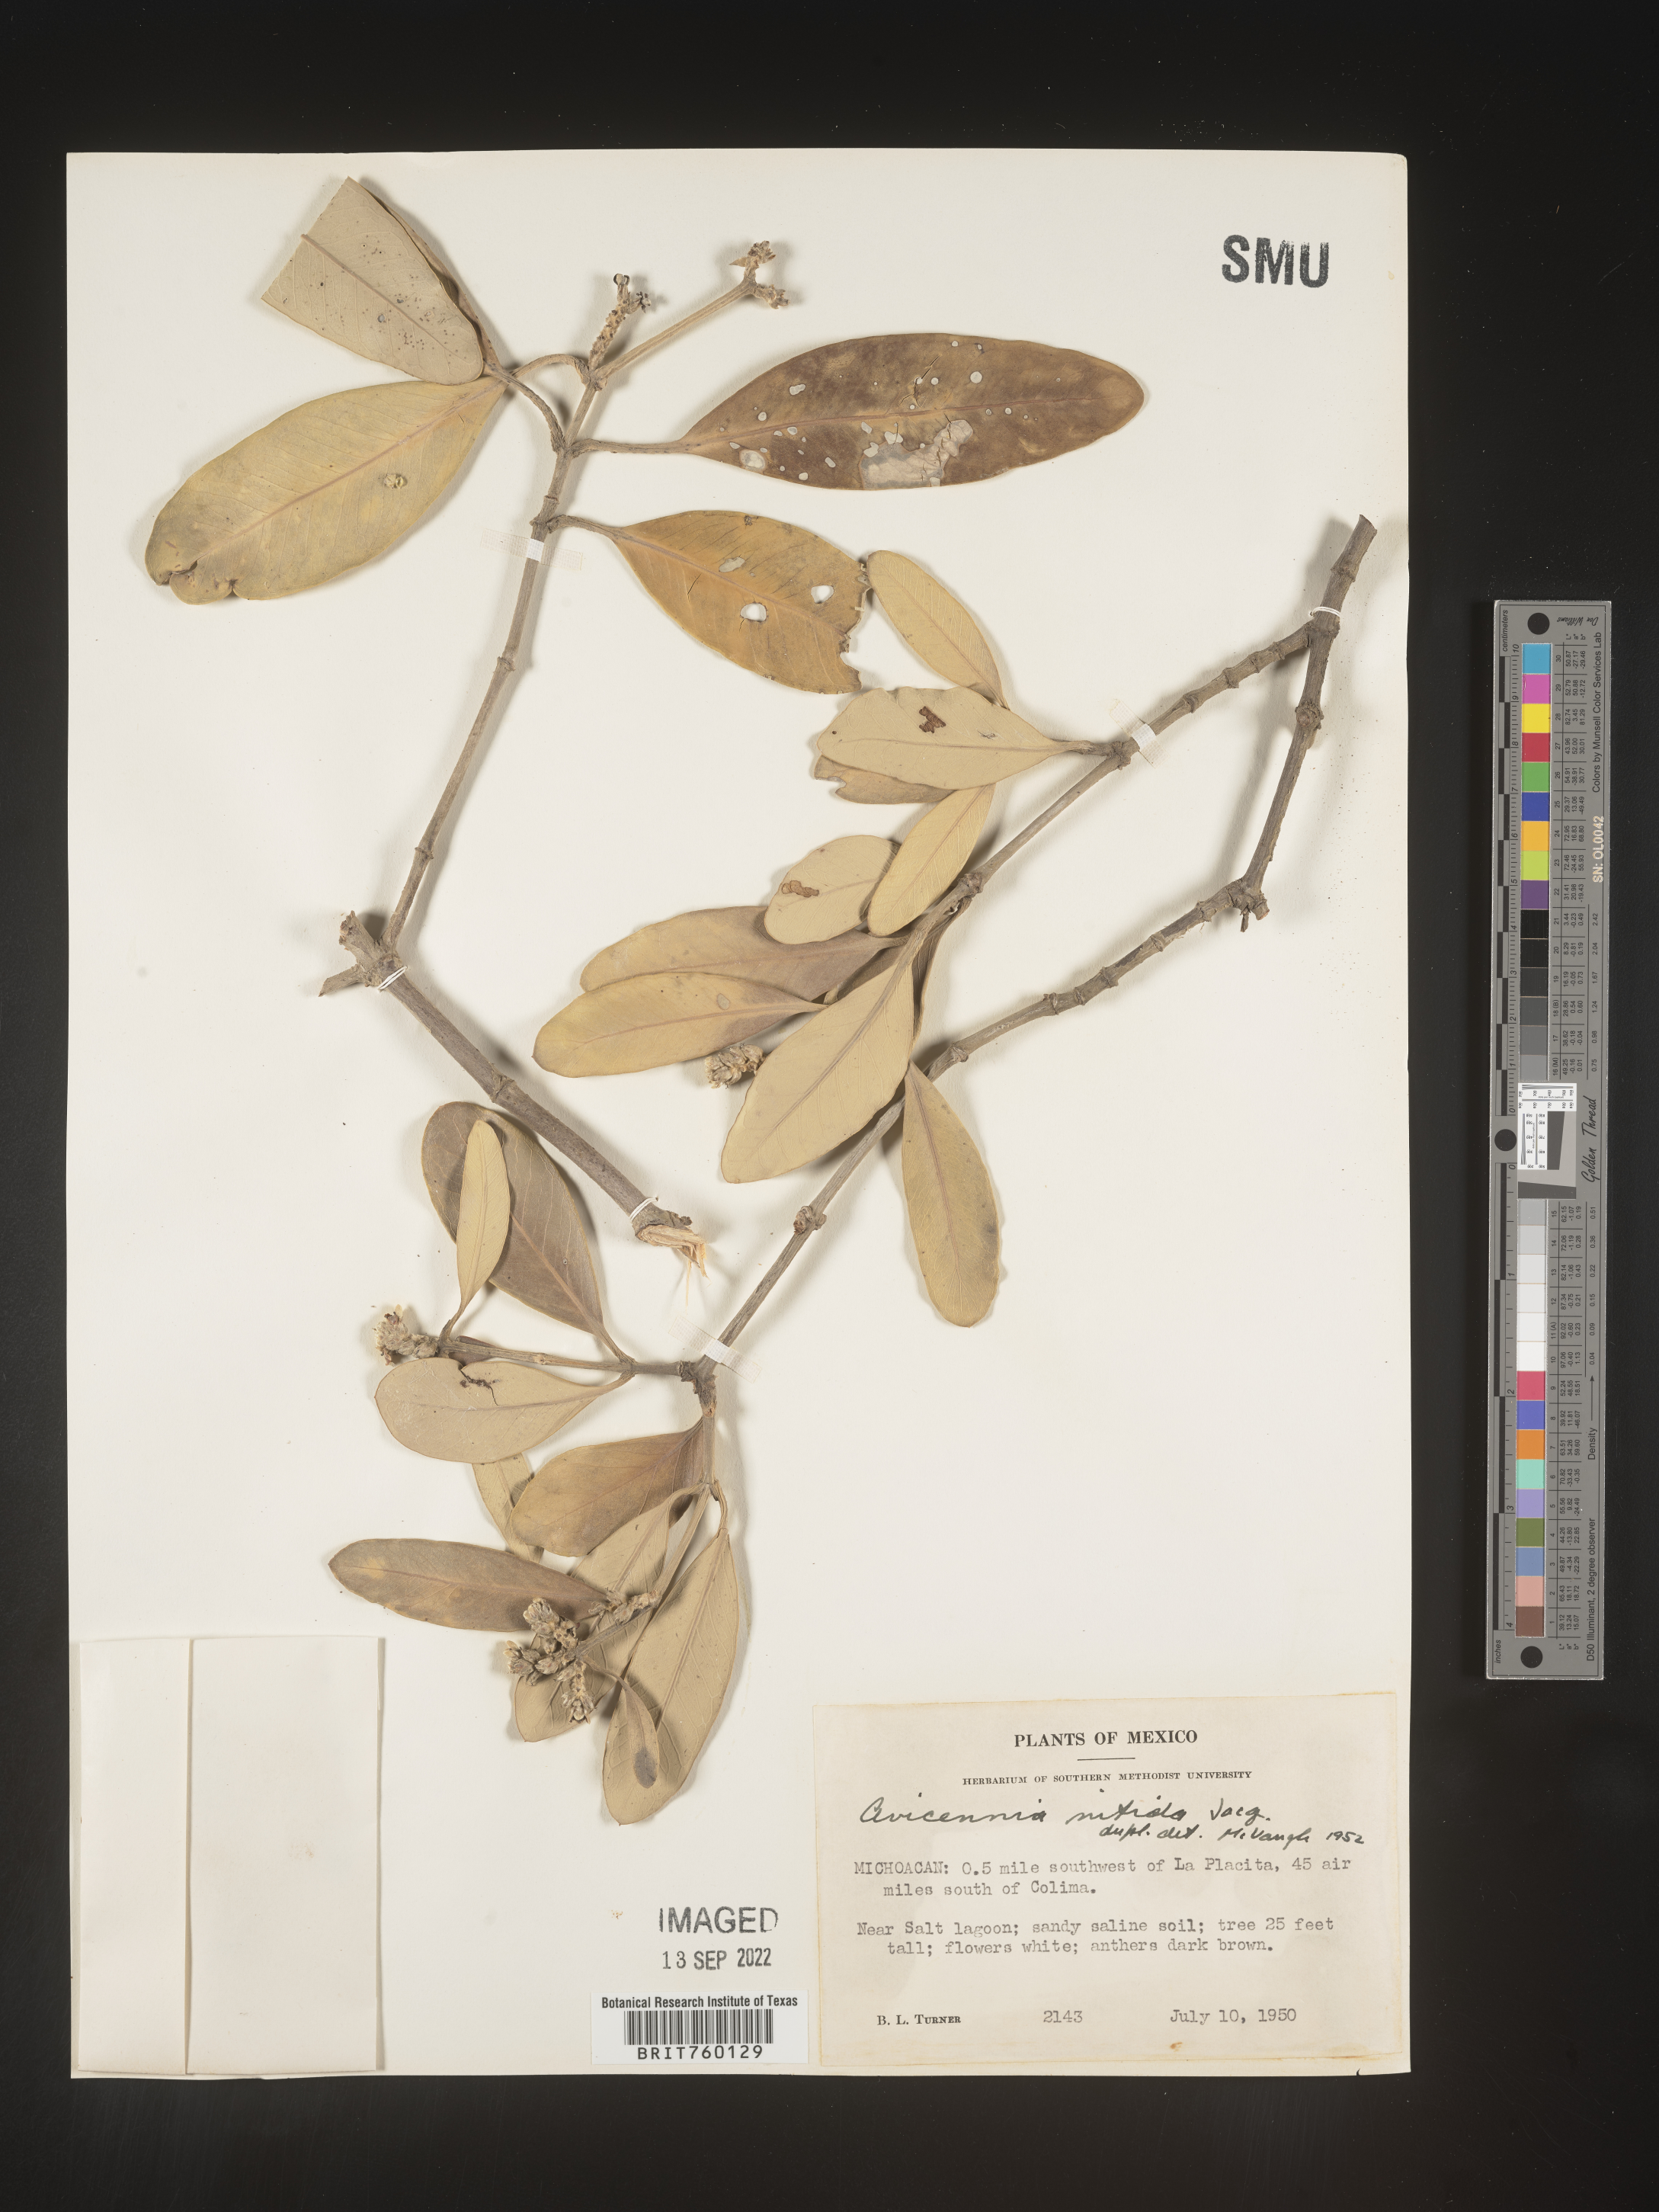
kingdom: Plantae
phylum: Tracheophyta
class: Magnoliopsida
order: Lamiales
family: Acanthaceae
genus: Avicennia
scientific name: Avicennia
